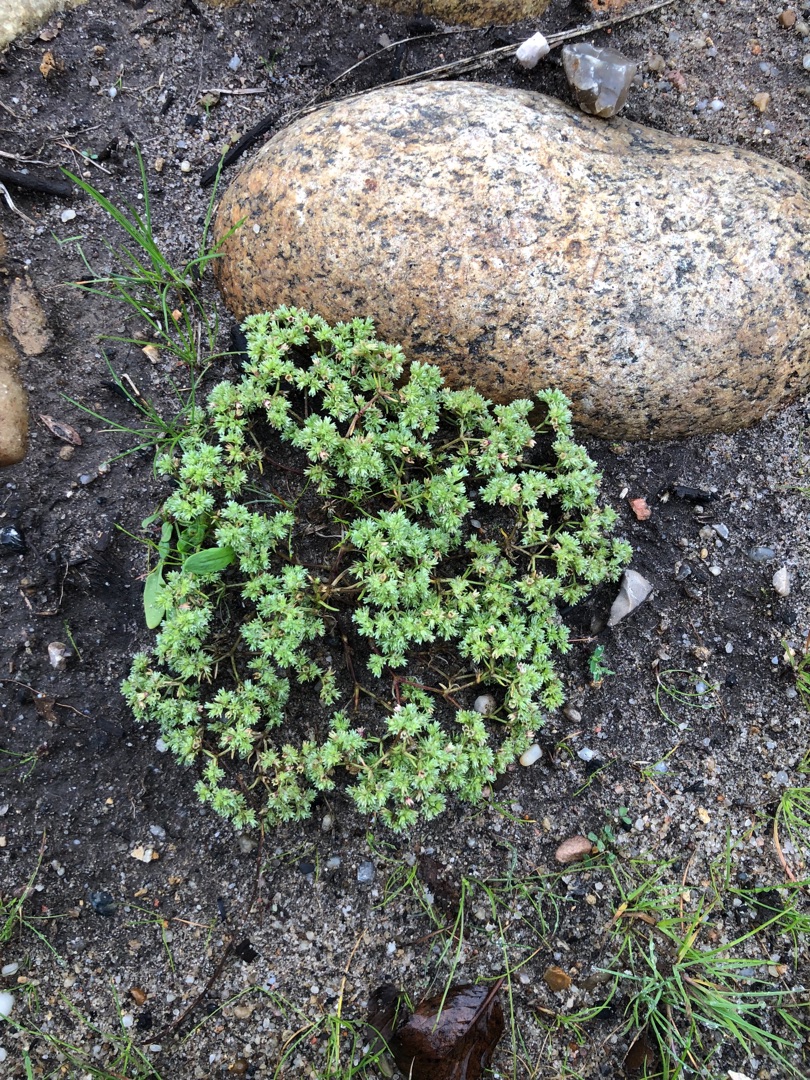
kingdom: Plantae
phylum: Tracheophyta
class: Magnoliopsida
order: Caryophyllales
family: Caryophyllaceae
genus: Scleranthus
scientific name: Scleranthus annuus
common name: Enårig knavel
